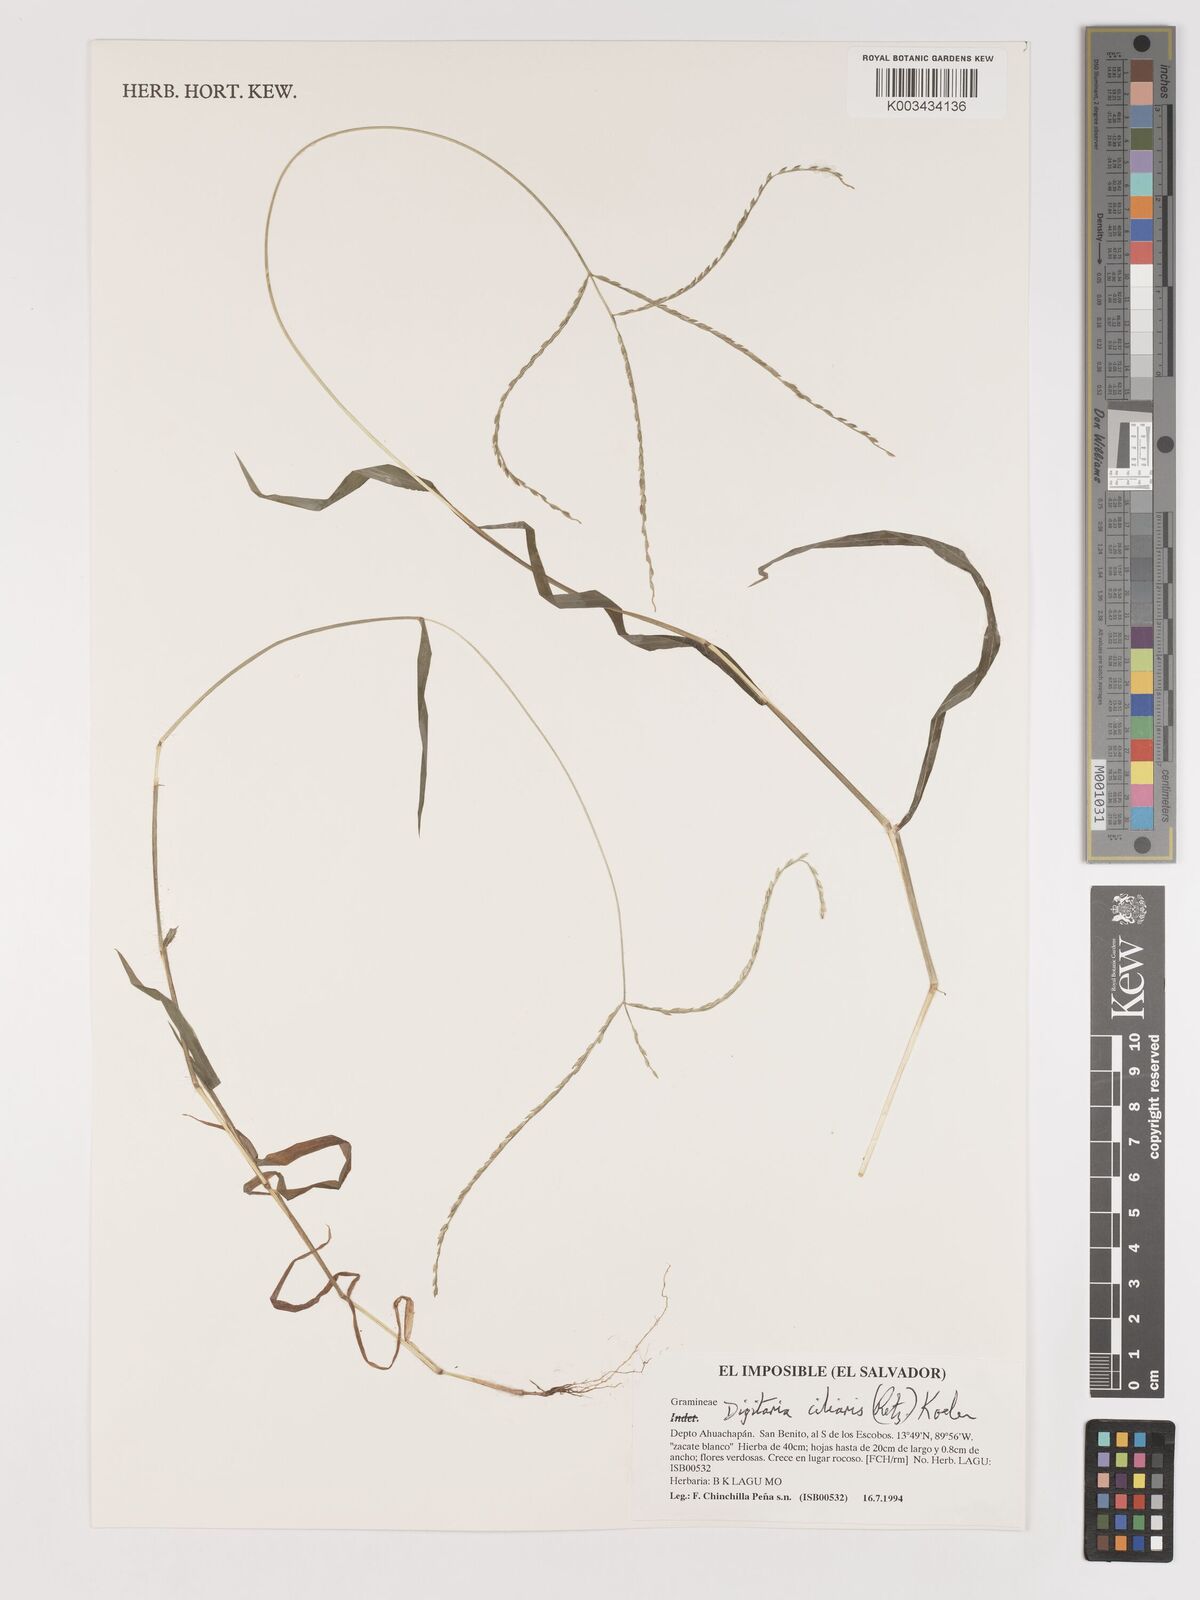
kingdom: Plantae
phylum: Tracheophyta
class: Liliopsida
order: Poales
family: Poaceae
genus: Digitaria
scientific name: Digitaria ciliaris
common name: Tropical finger-grass
